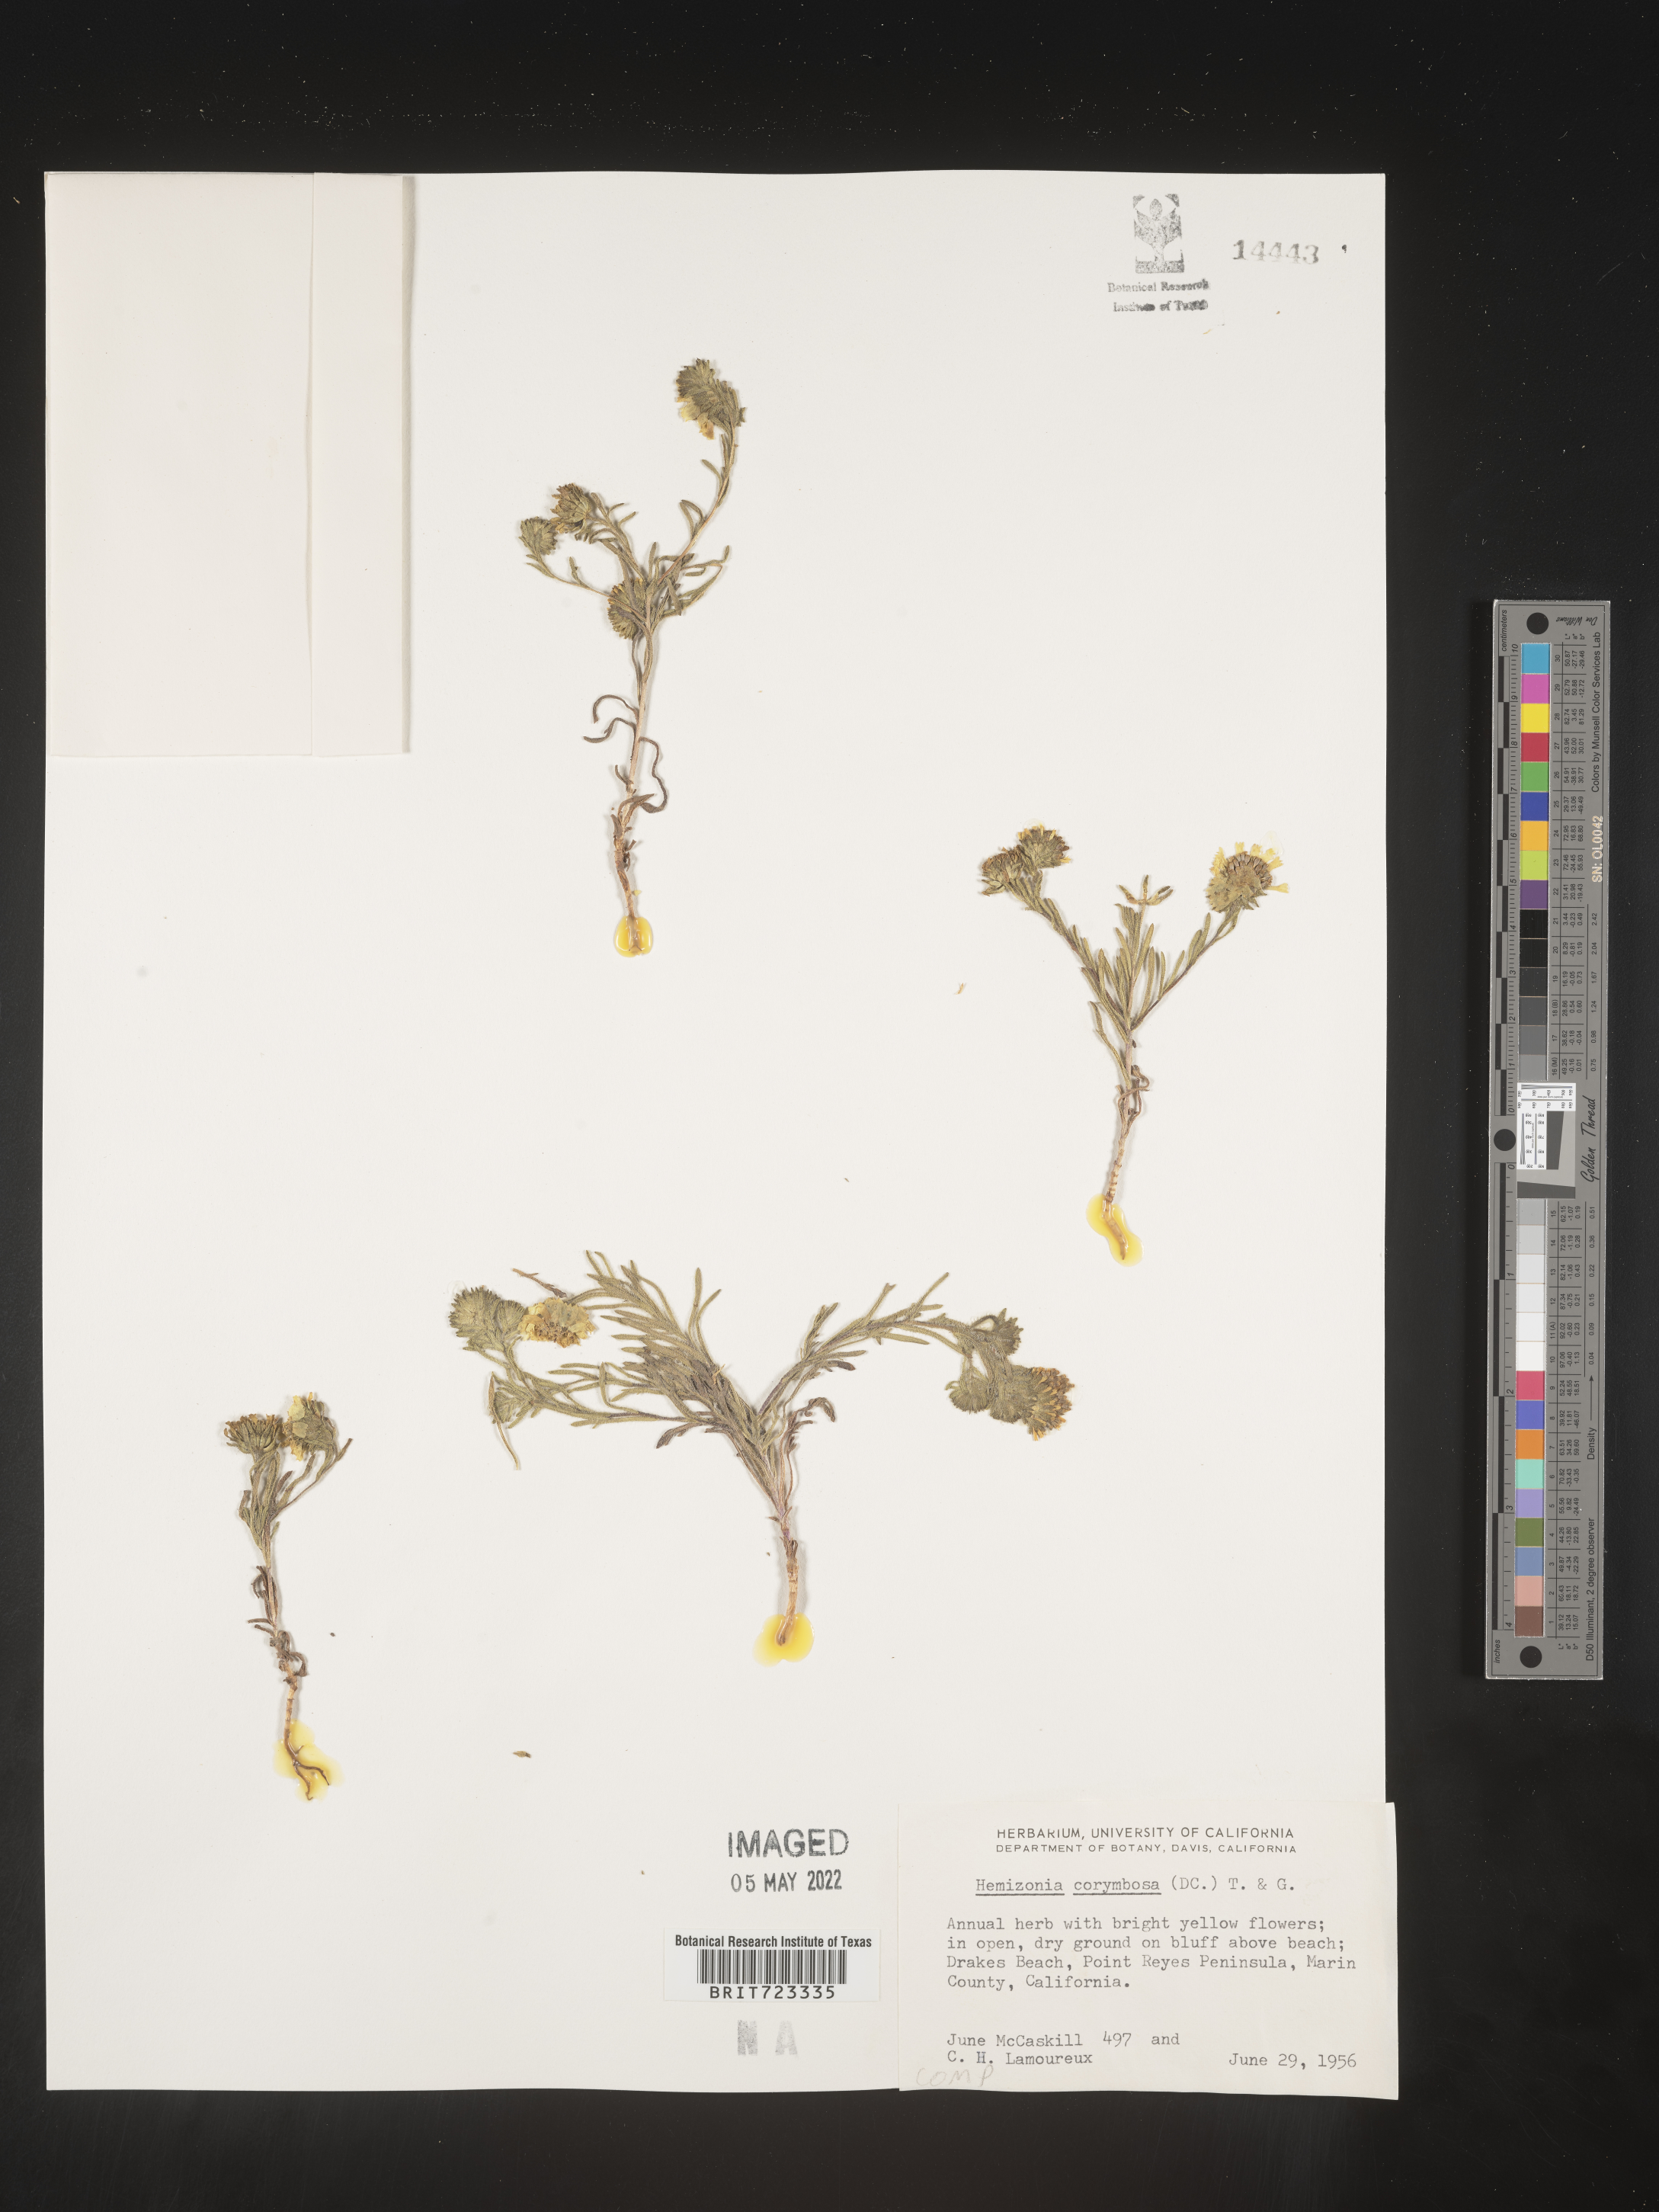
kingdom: Plantae
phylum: Tracheophyta
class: Magnoliopsida
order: Asterales
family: Asteraceae
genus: Hemizonia
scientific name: Hemizonia
